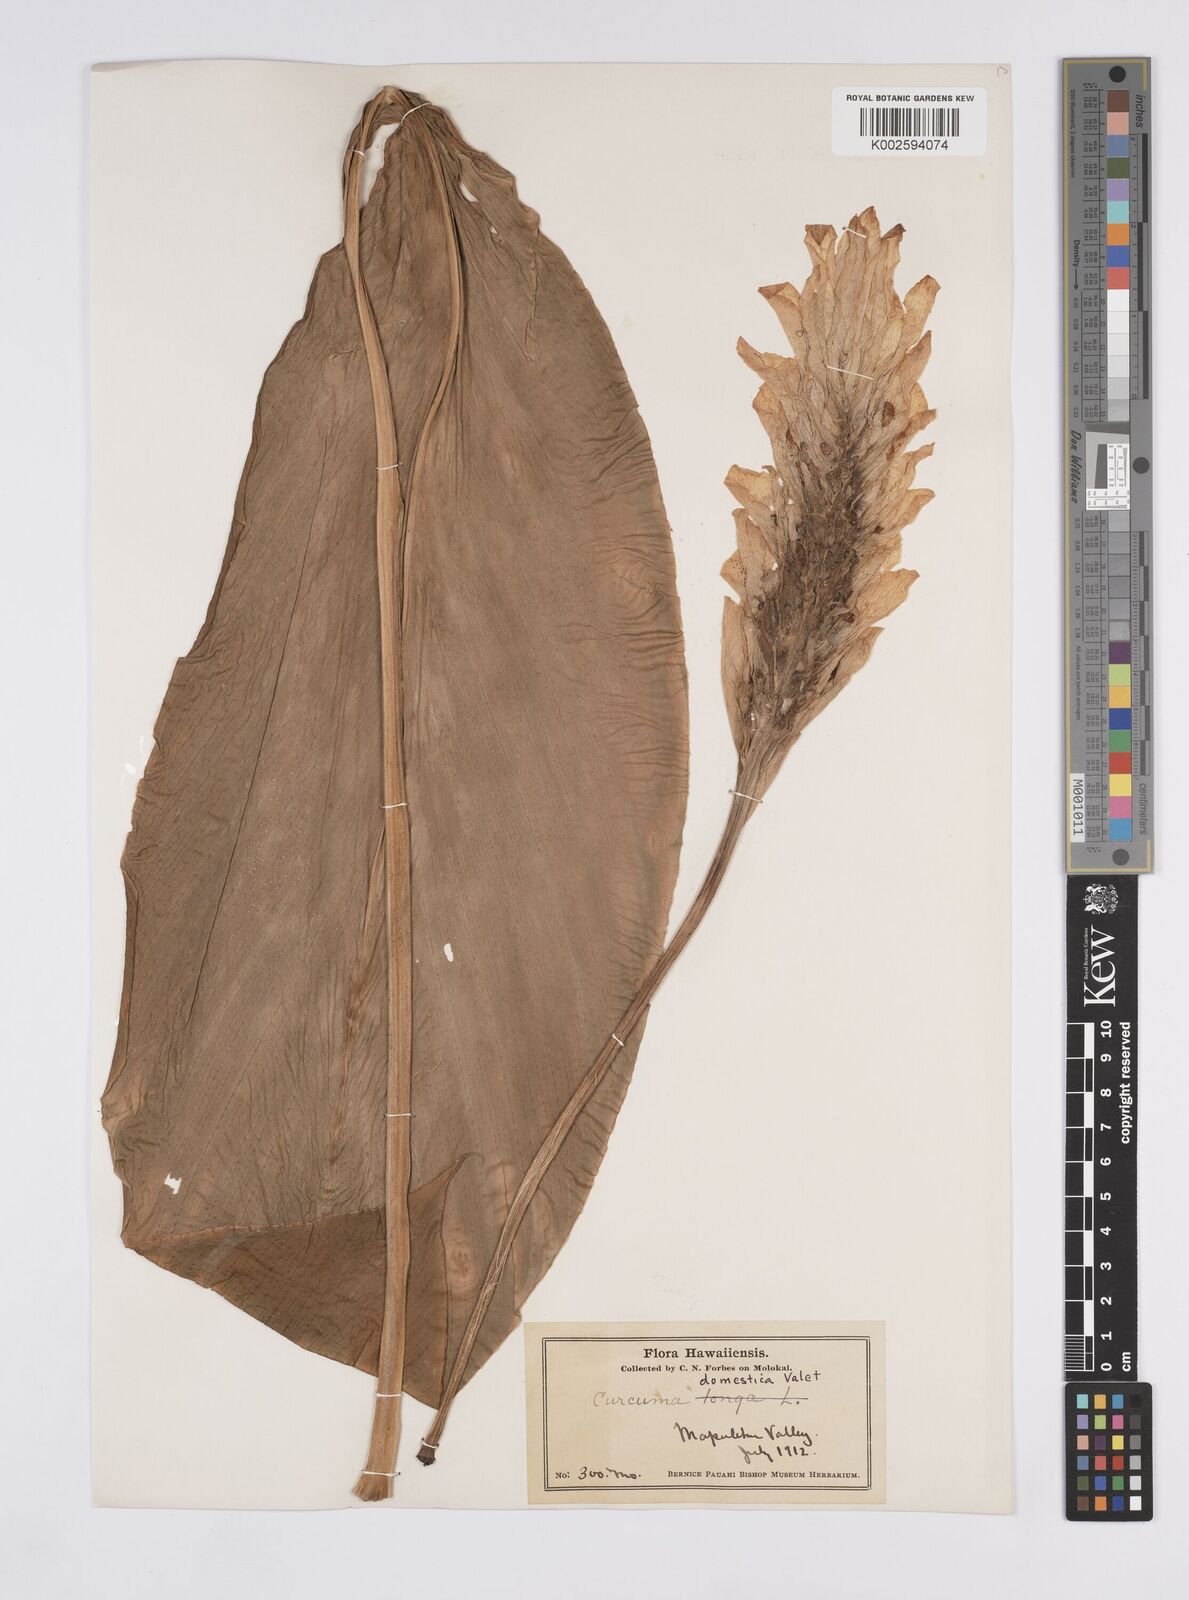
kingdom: Plantae
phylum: Tracheophyta
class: Liliopsida
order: Zingiberales
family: Zingiberaceae
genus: Curcuma
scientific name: Curcuma longa
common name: Turmeric
